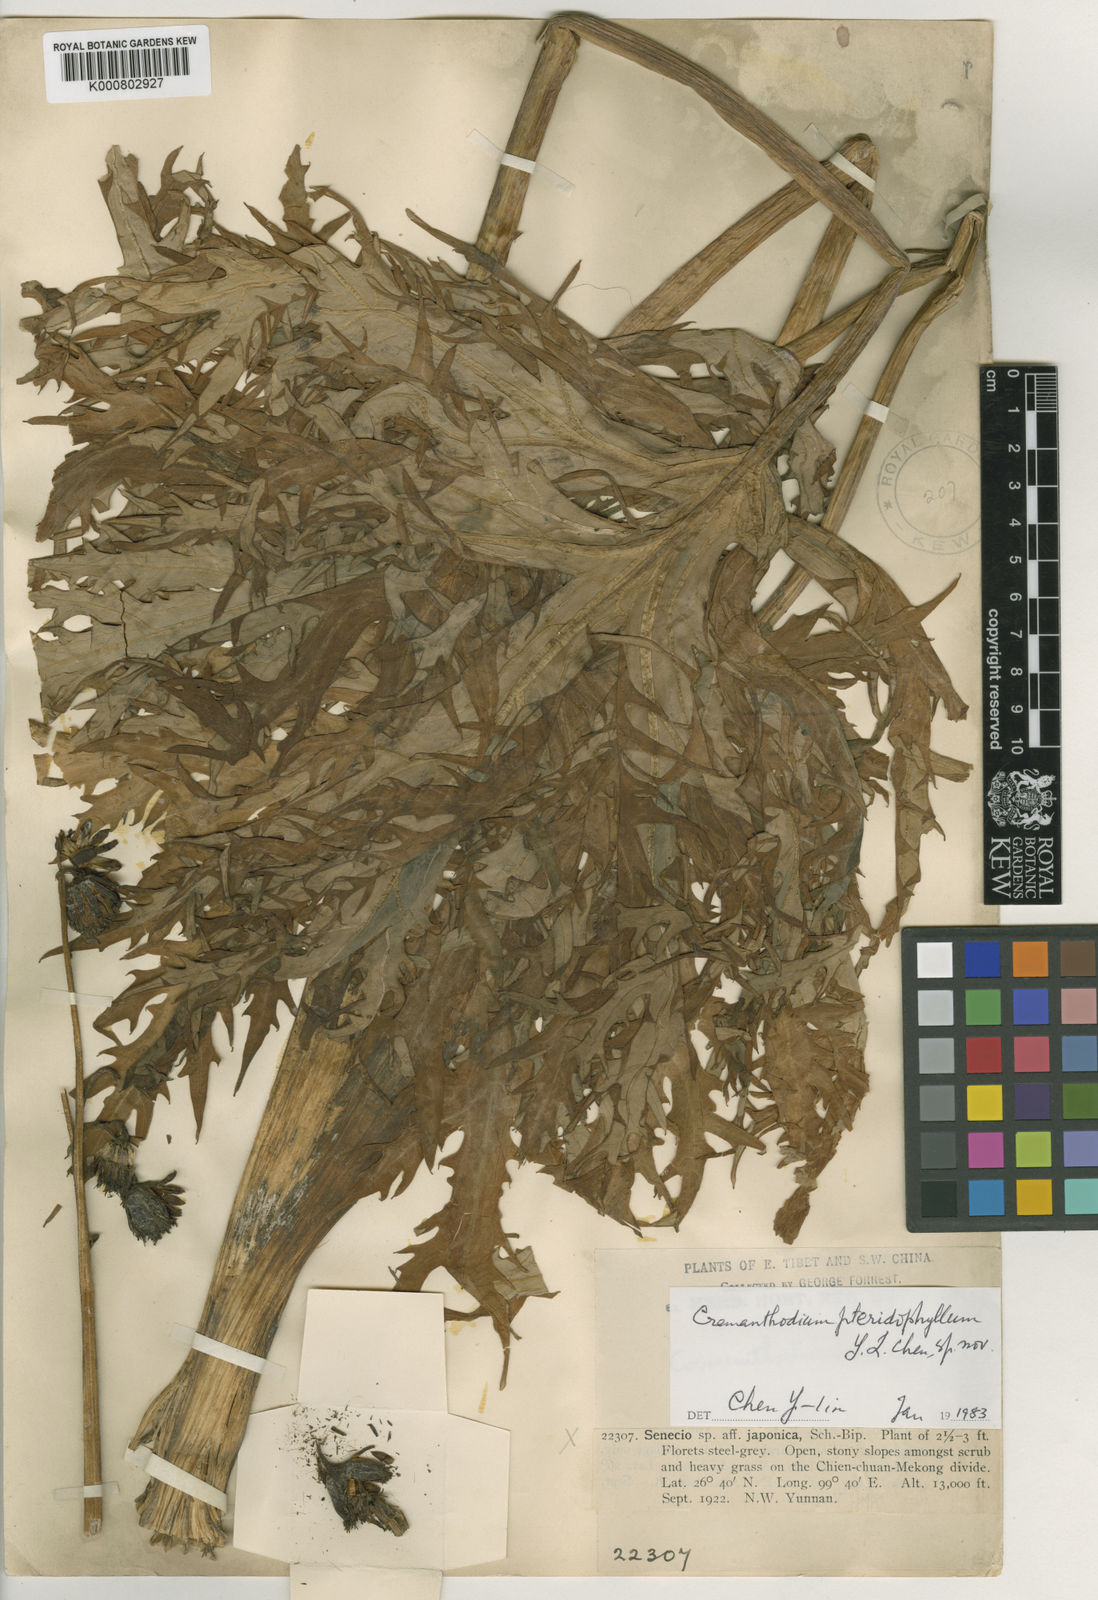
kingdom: Plantae
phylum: Tracheophyta
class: Magnoliopsida
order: Asterales
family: Asteraceae
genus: Ligularia
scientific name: Ligularia cremanthodioides
